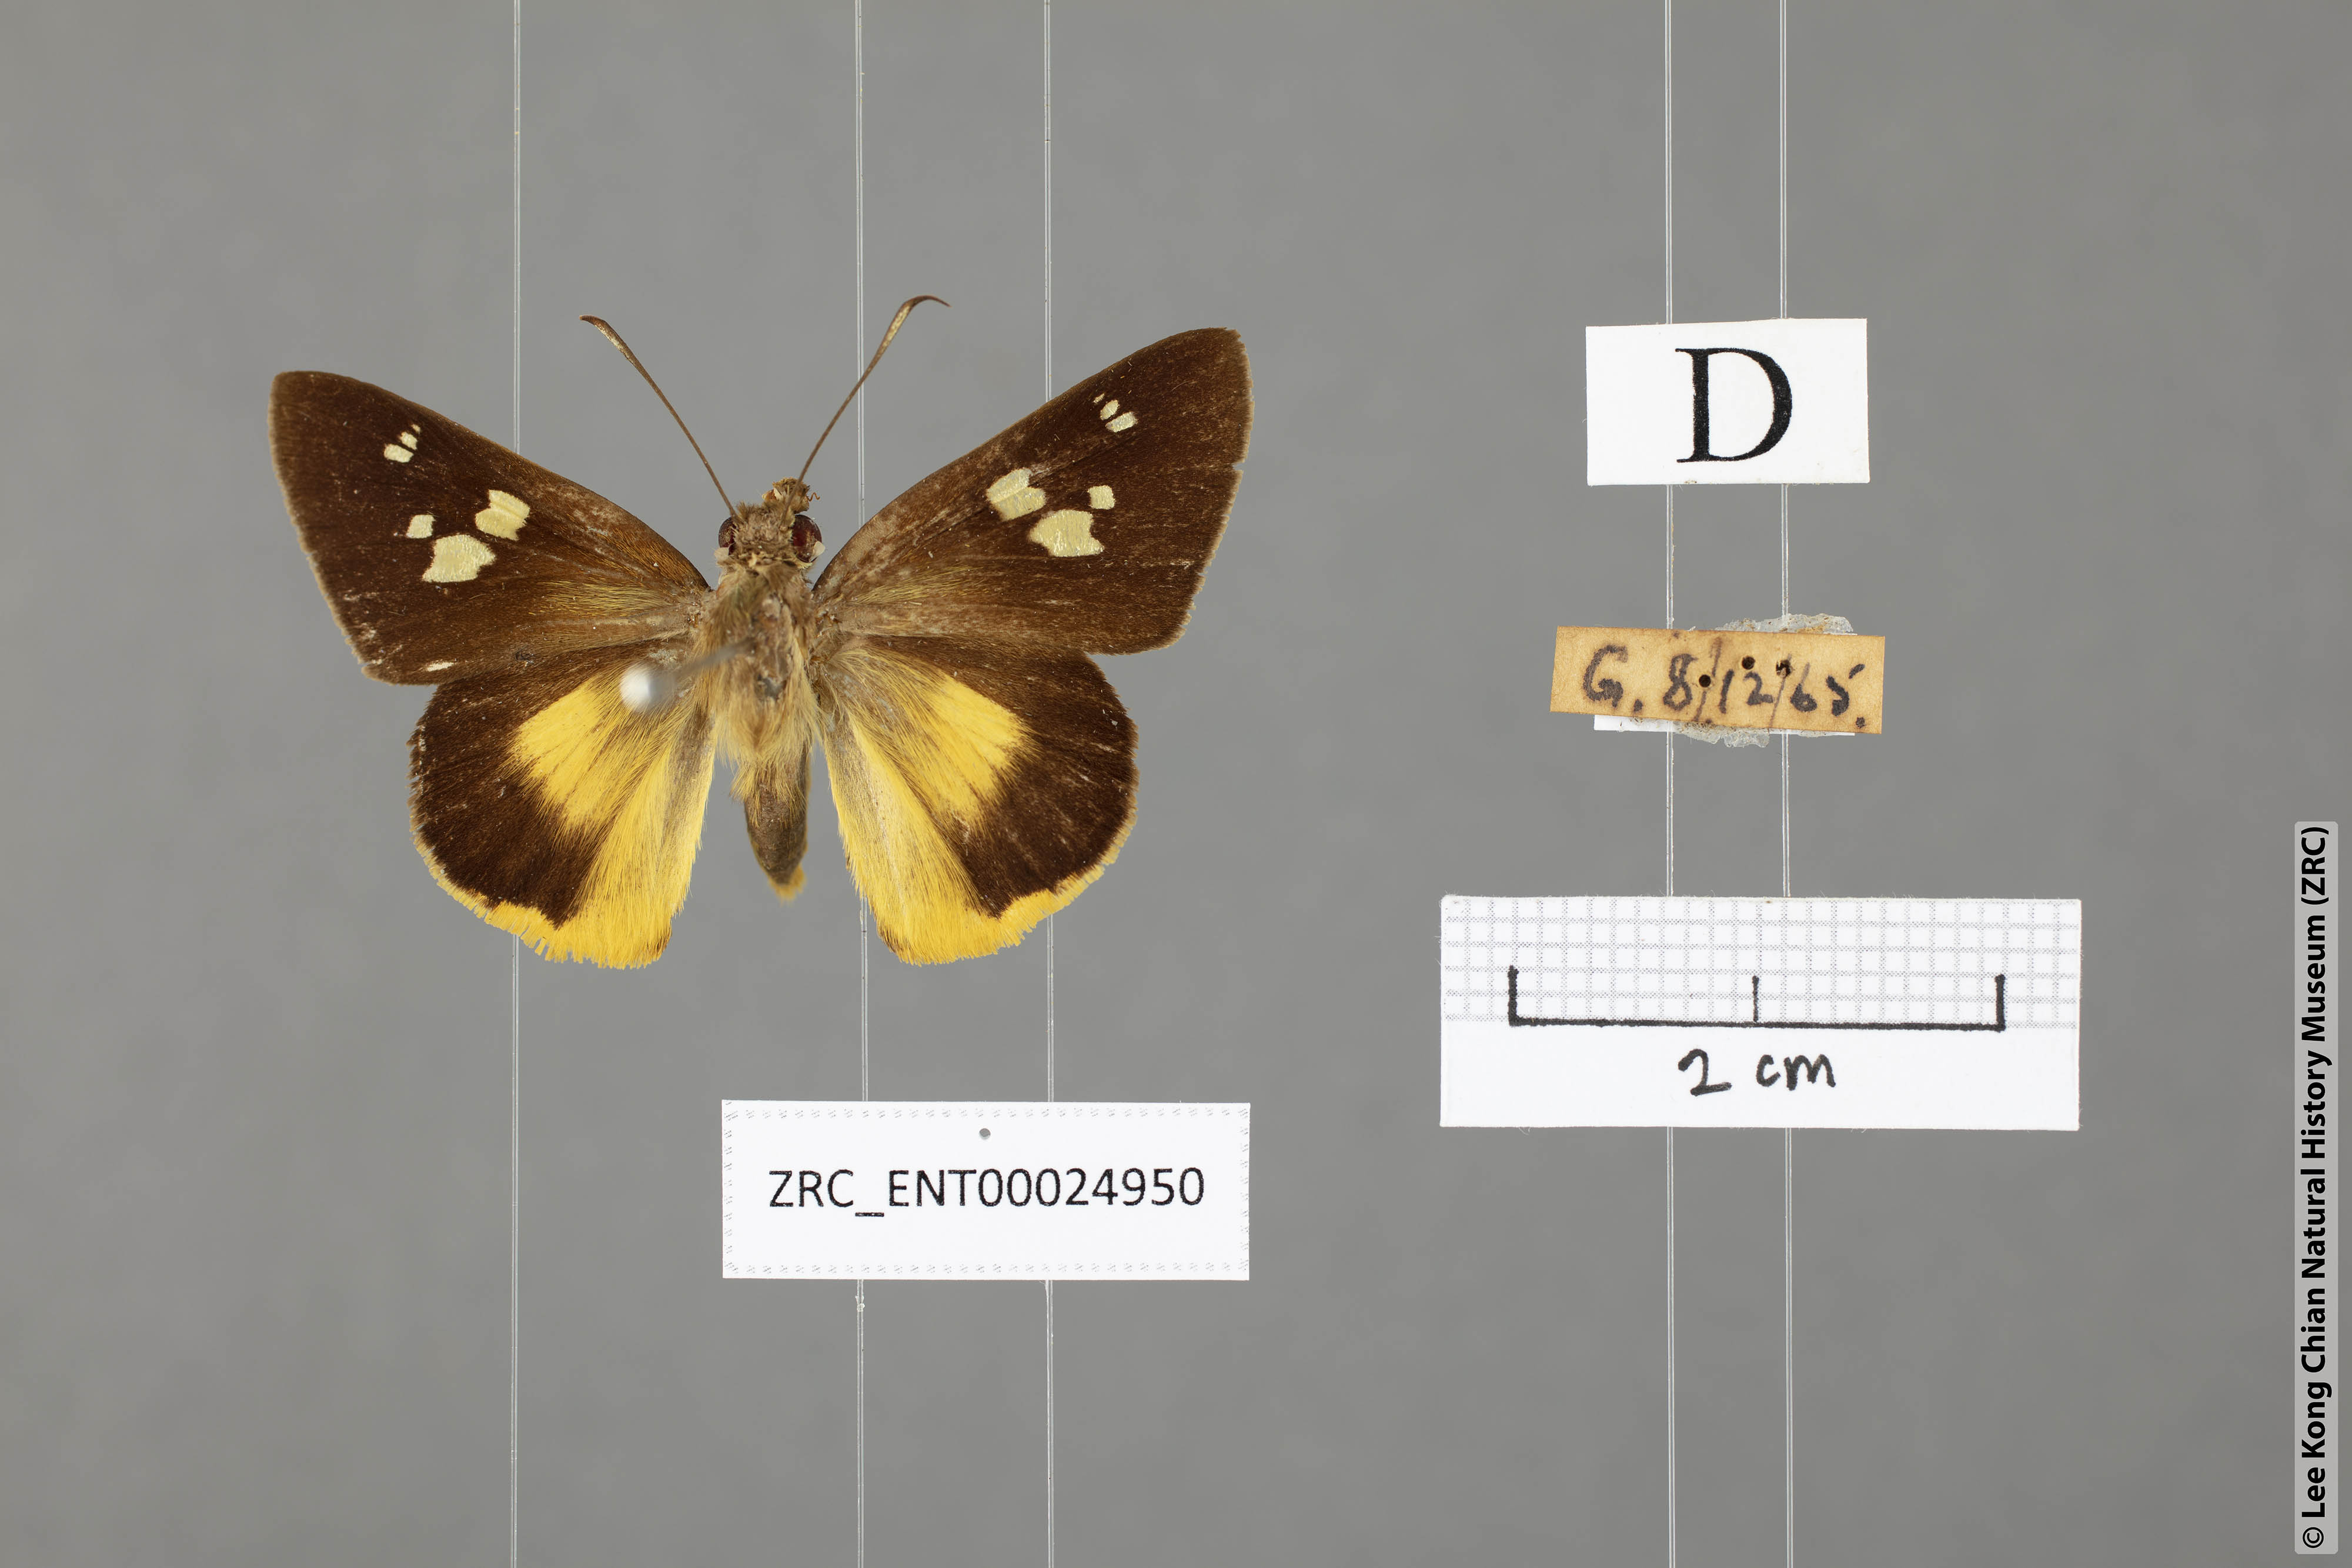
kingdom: Animalia
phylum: Arthropoda
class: Insecta
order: Lepidoptera
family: Hesperiidae
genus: Zela
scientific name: Zela excellens
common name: White-club yellow palmer
